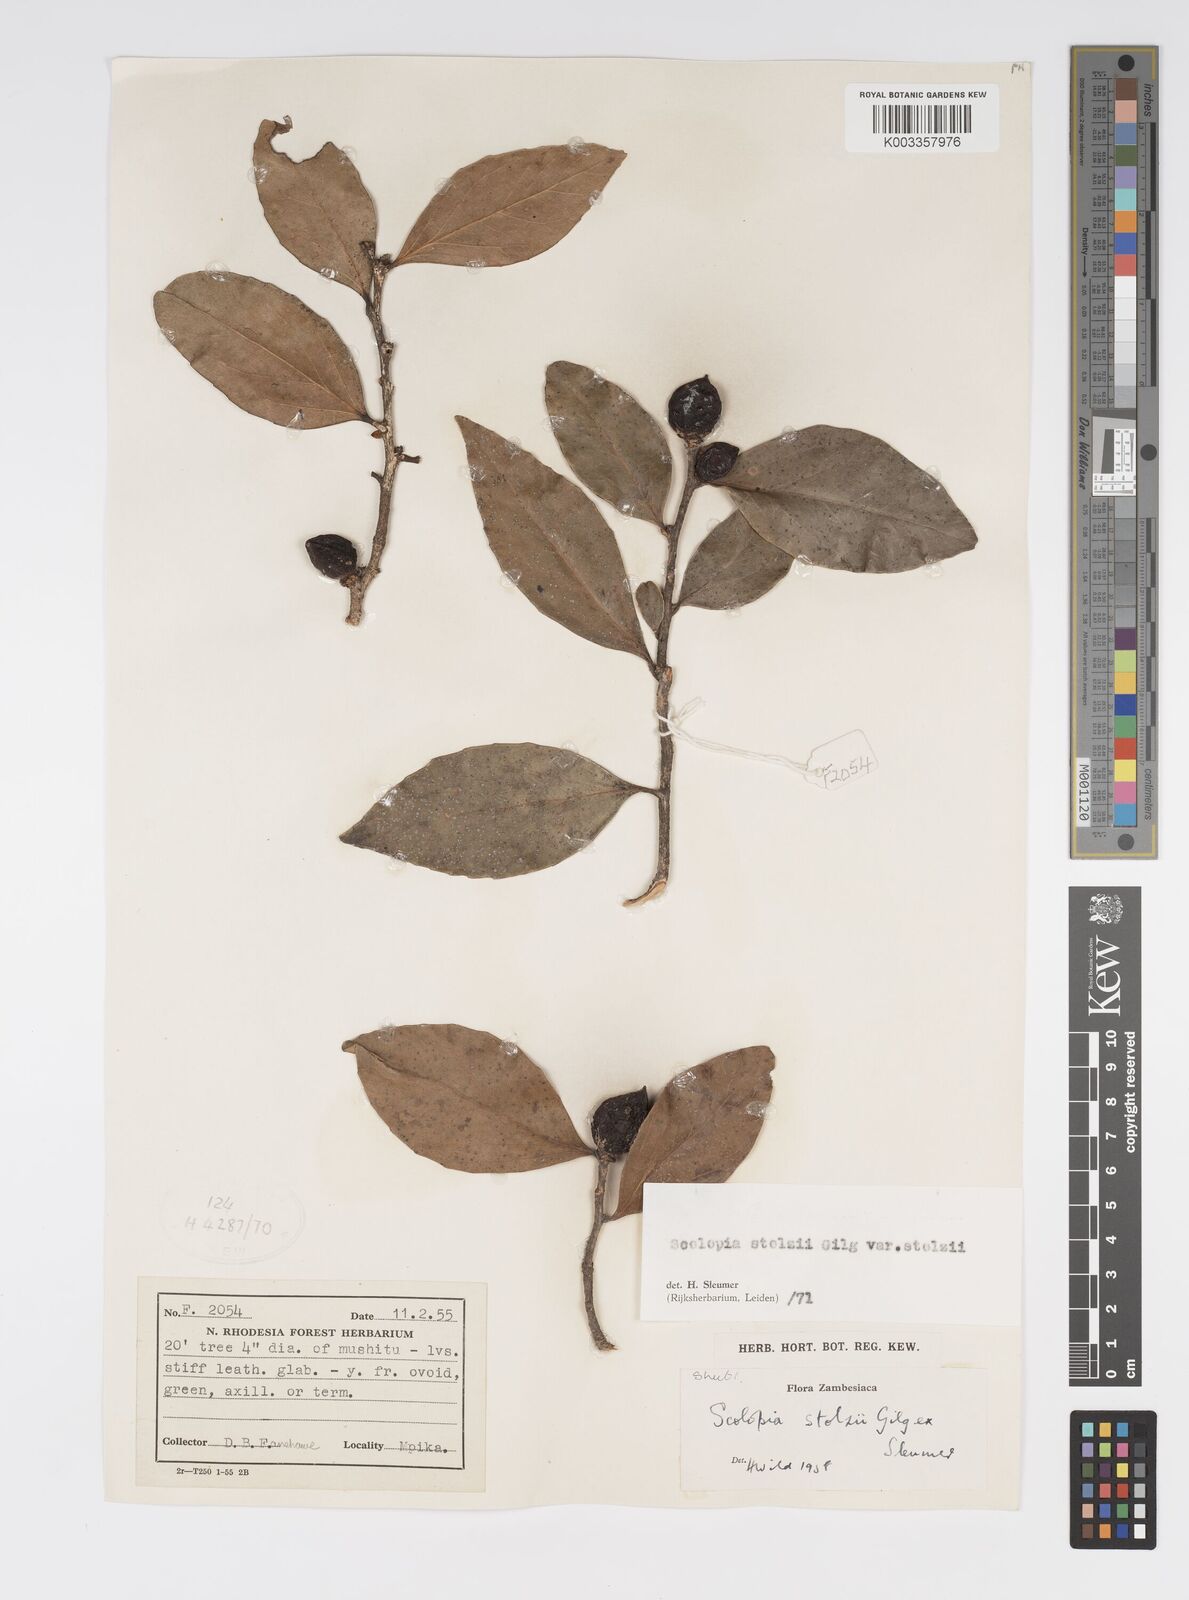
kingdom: Plantae
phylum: Tracheophyta
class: Magnoliopsida
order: Malpighiales
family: Salicaceae
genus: Scolopia
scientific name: Scolopia stolzii
